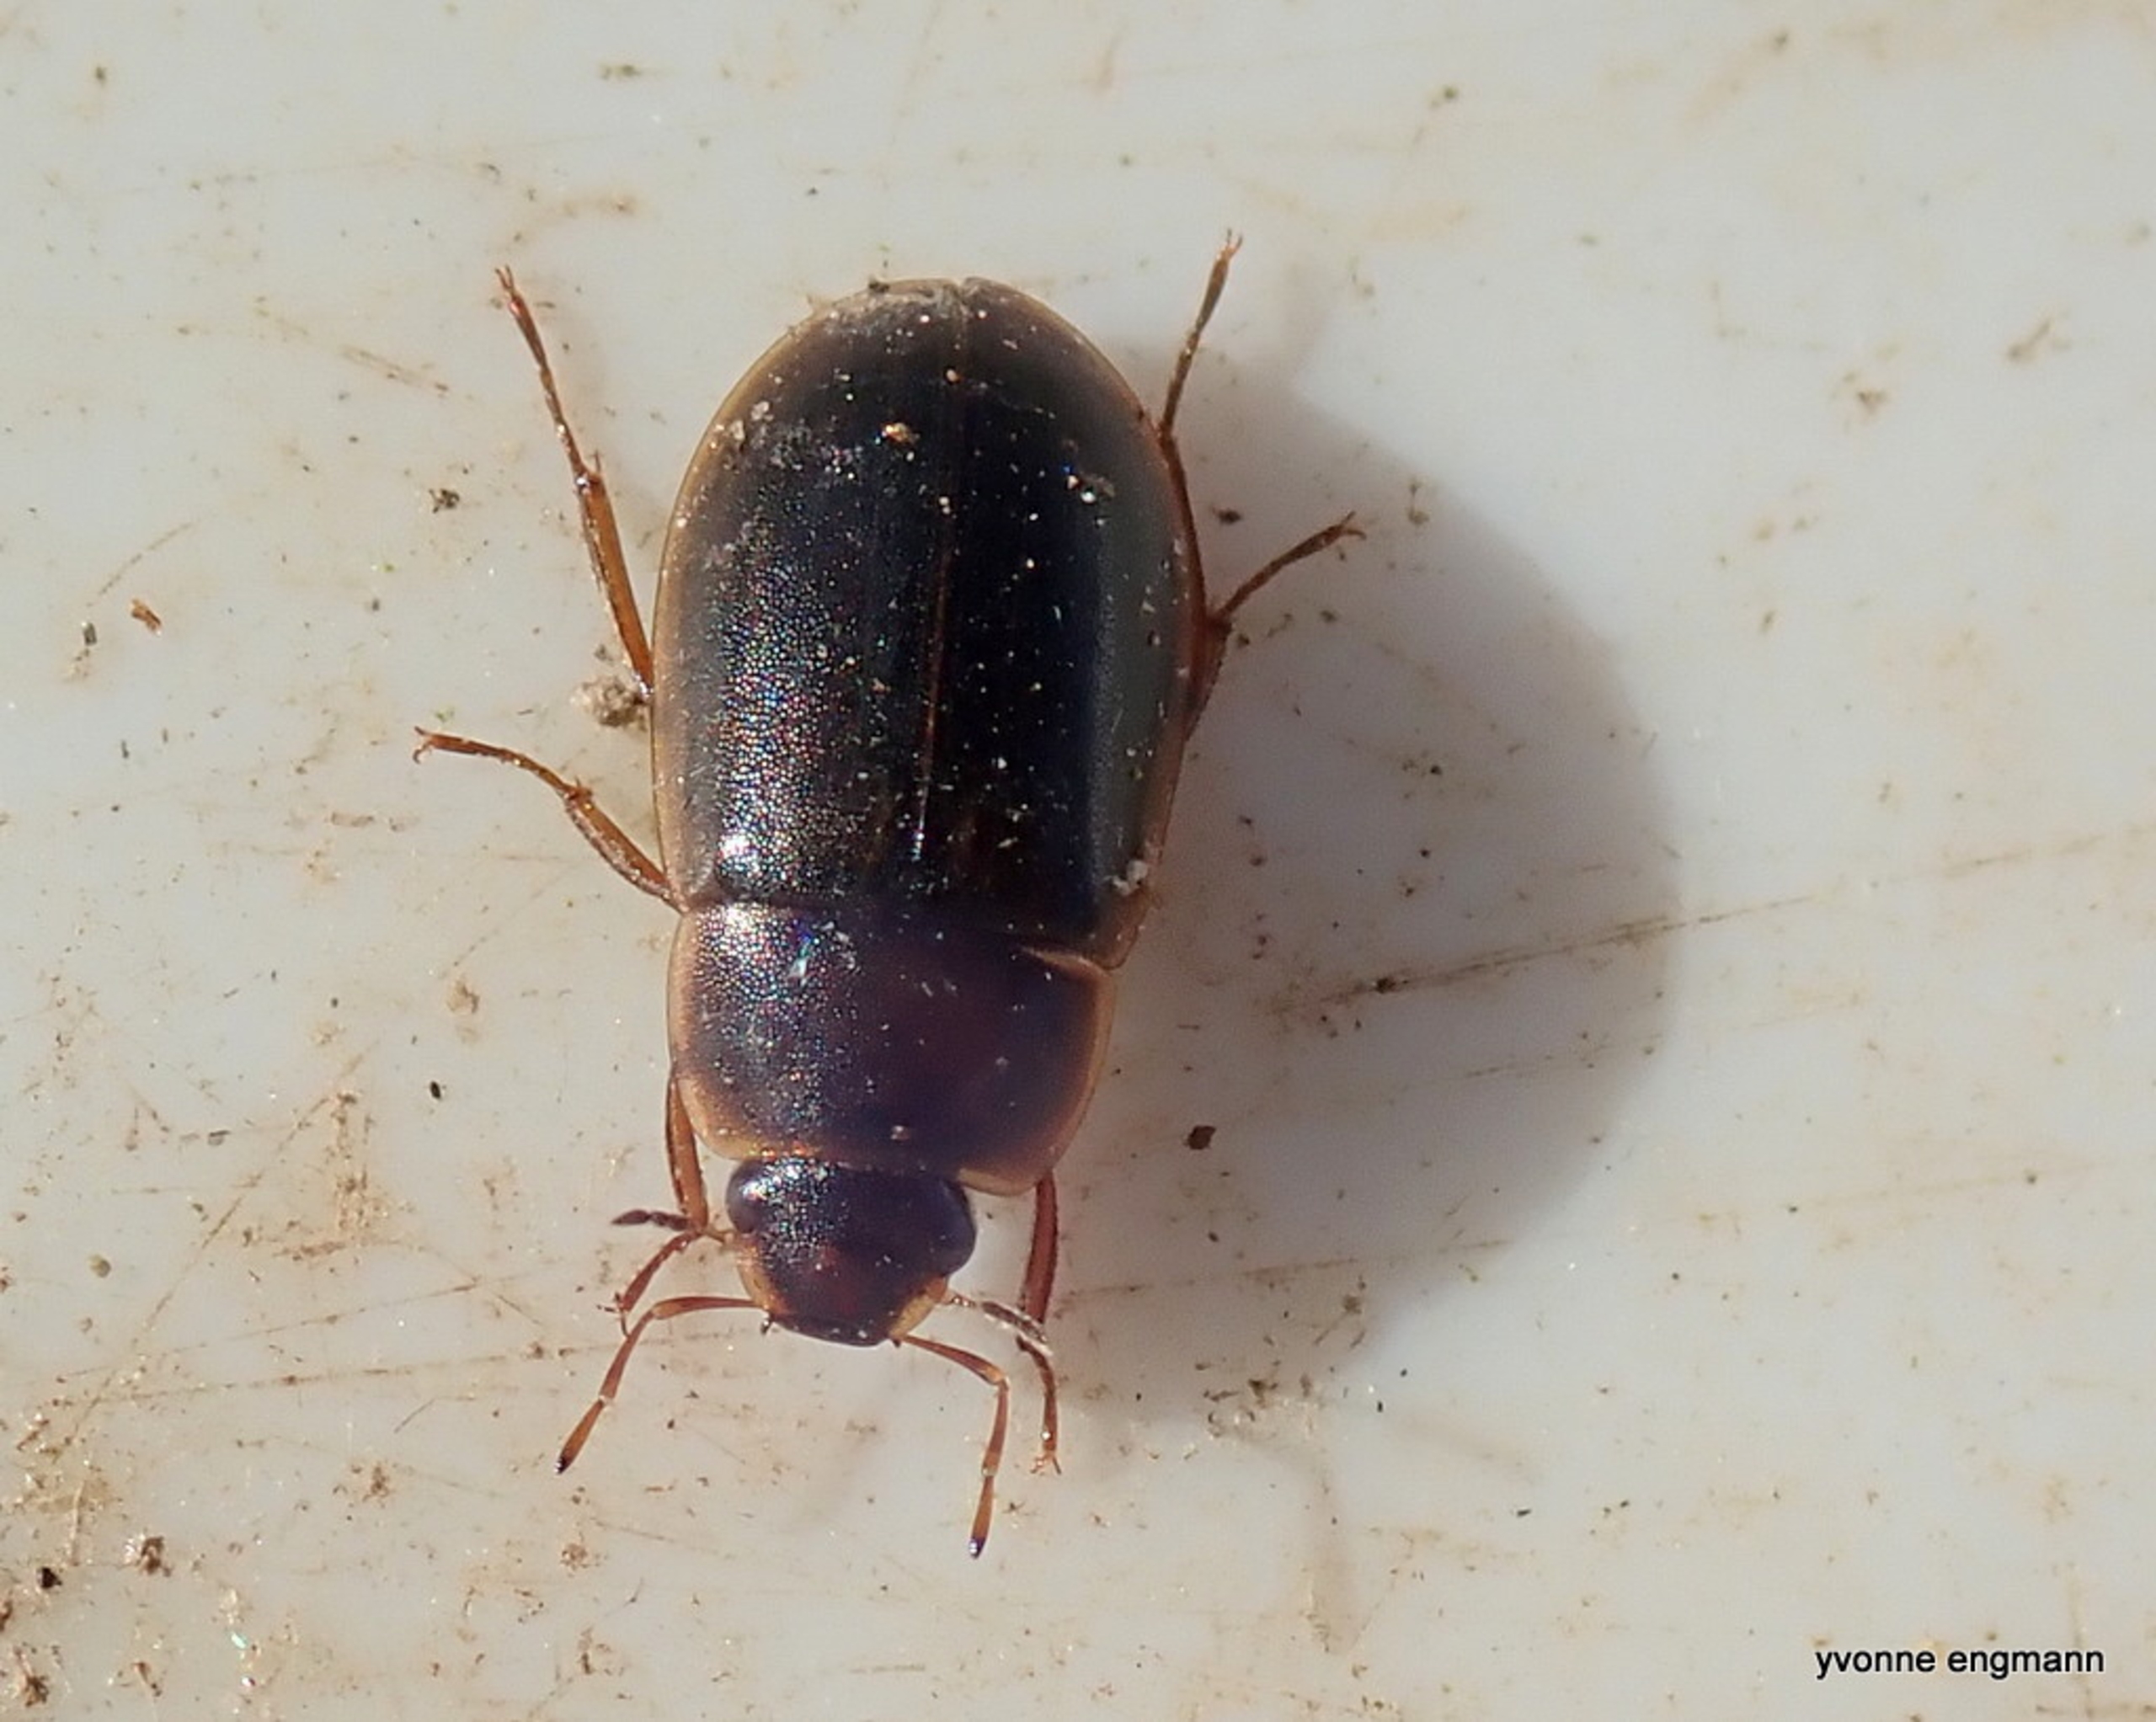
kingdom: Animalia
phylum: Arthropoda
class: Insecta
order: Coleoptera
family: Hydrophilidae
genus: Helochares
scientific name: Helochares
